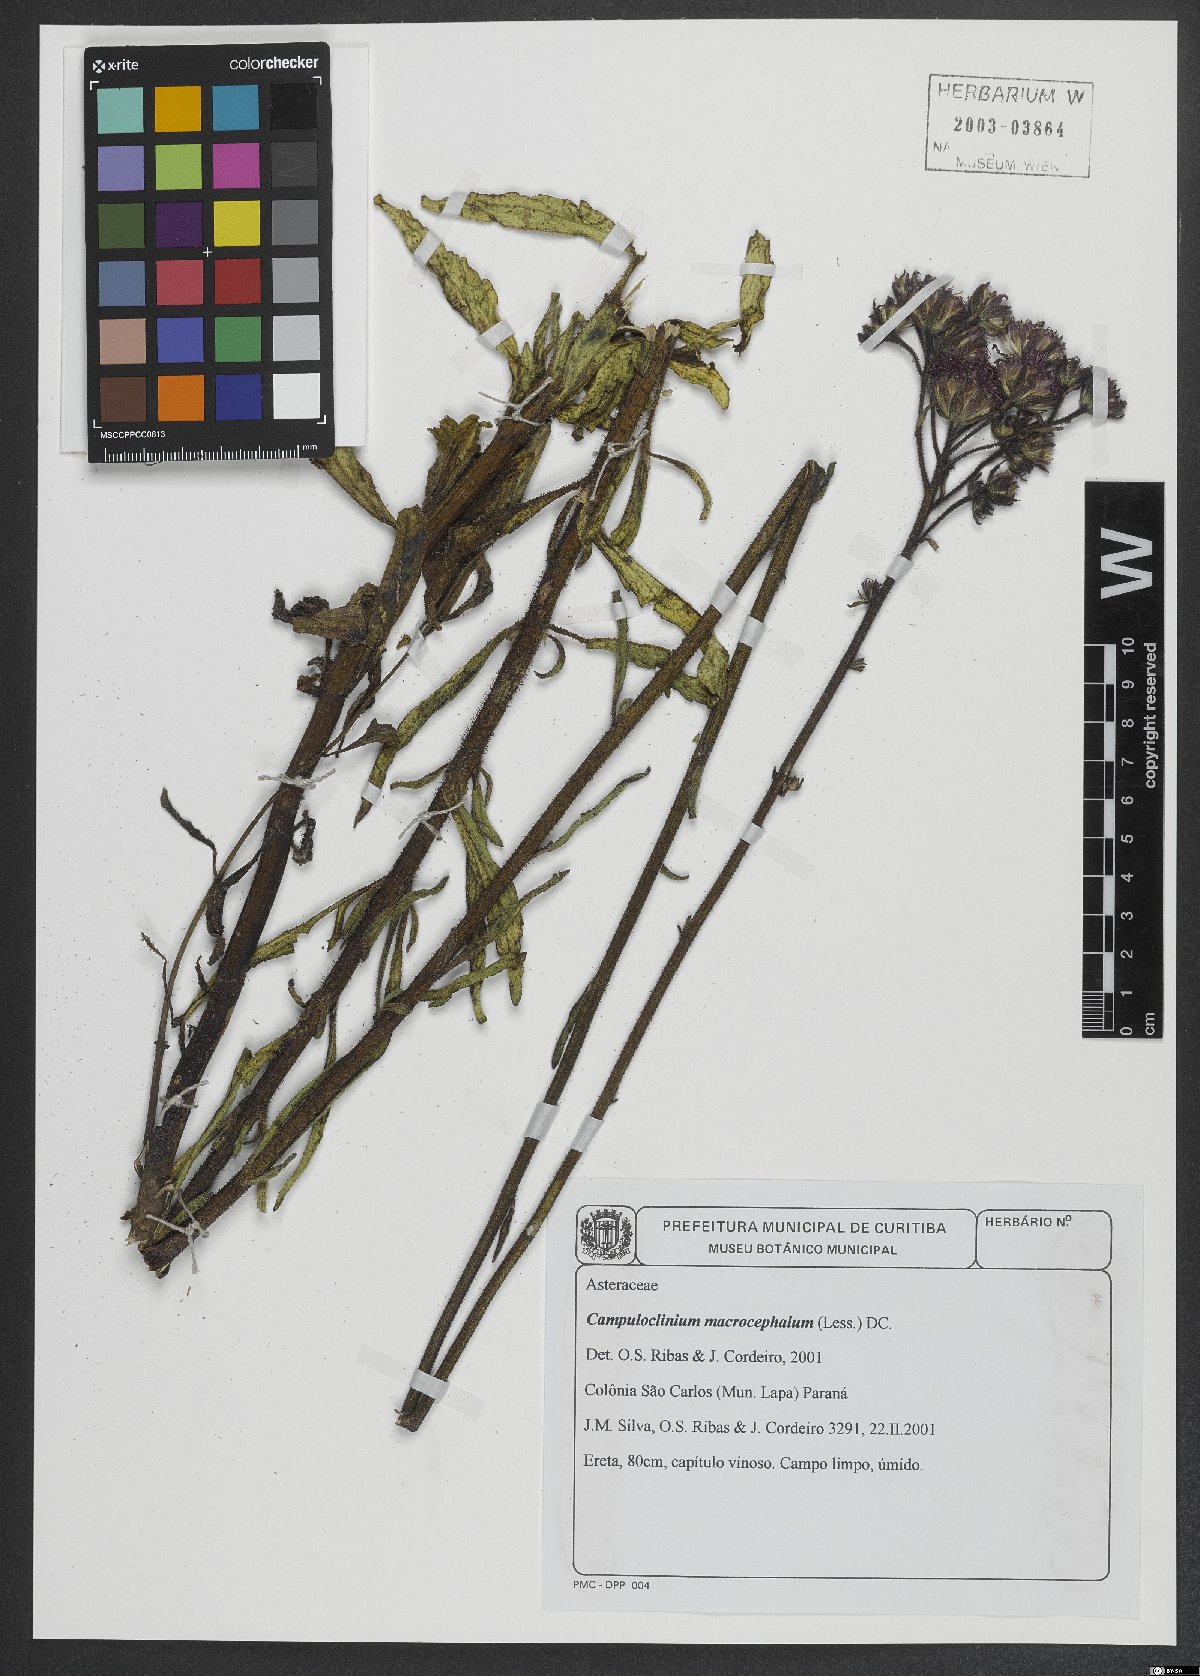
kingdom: Plantae
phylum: Tracheophyta
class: Magnoliopsida
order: Asterales
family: Asteraceae
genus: Campuloclinium
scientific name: Campuloclinium macrocephalum
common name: Pompomweed
